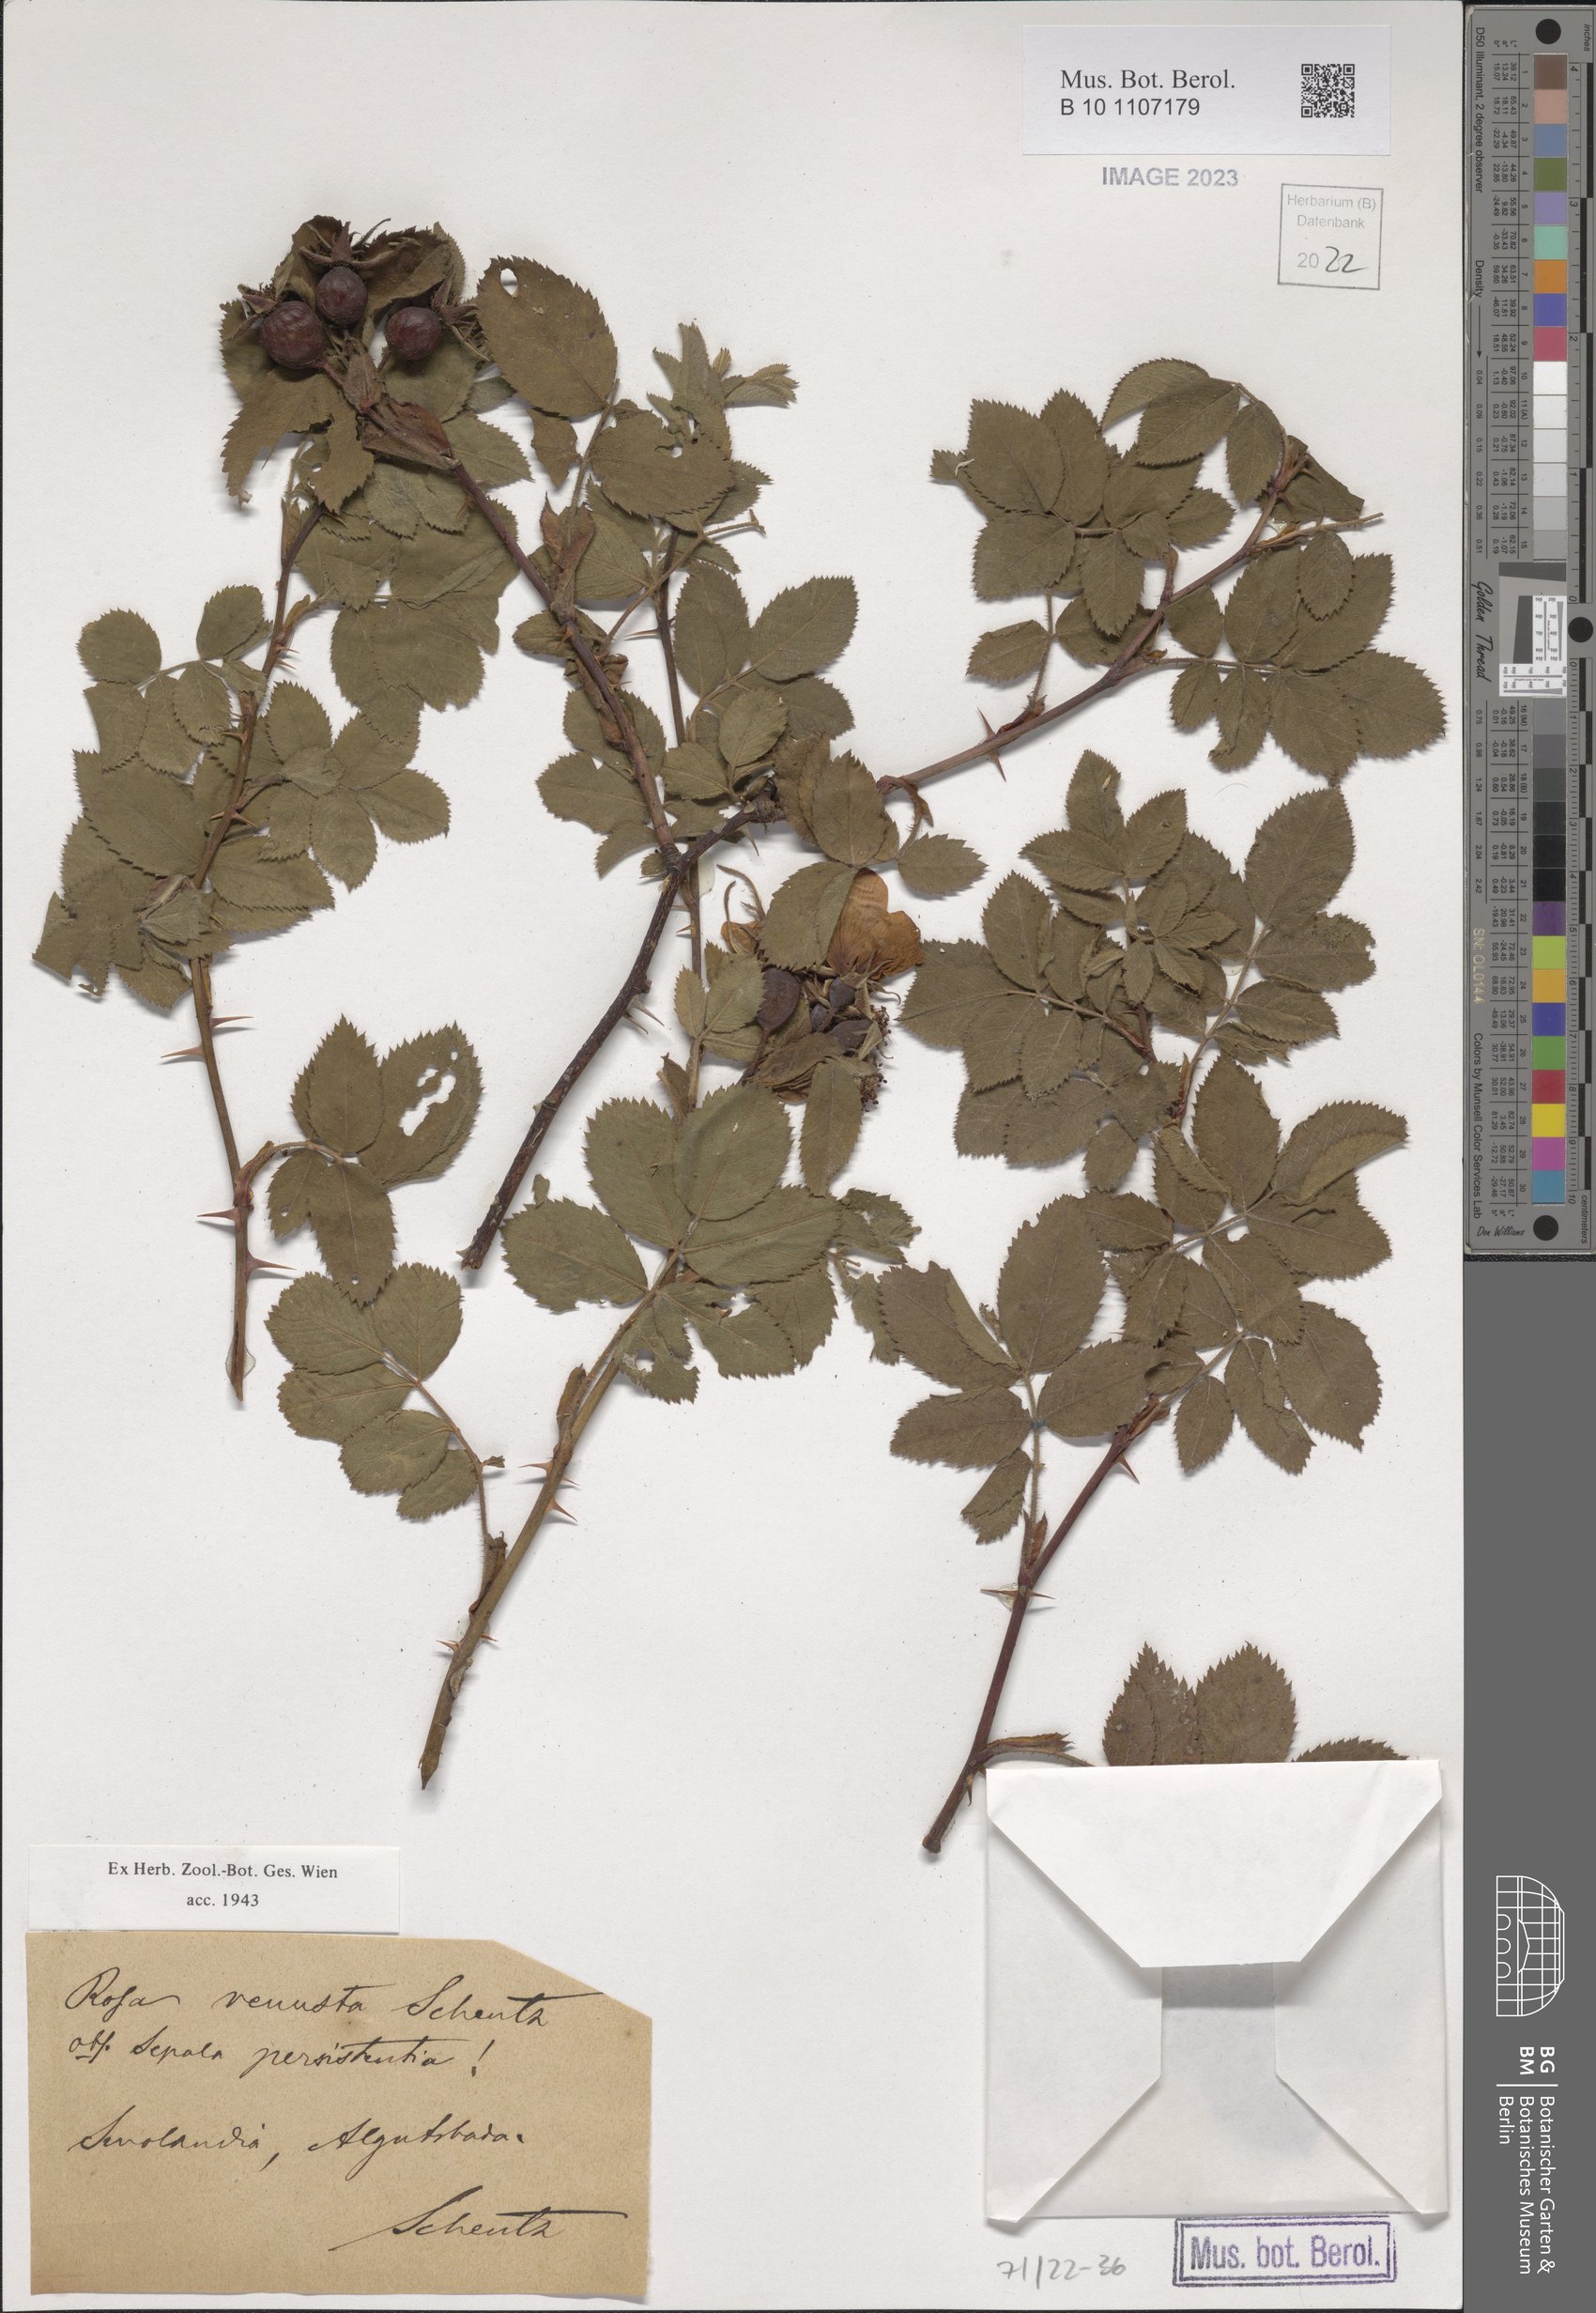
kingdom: Plantae
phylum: Tracheophyta
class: Magnoliopsida
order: Rosales
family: Rosaceae
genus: Rosa
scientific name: Rosa
